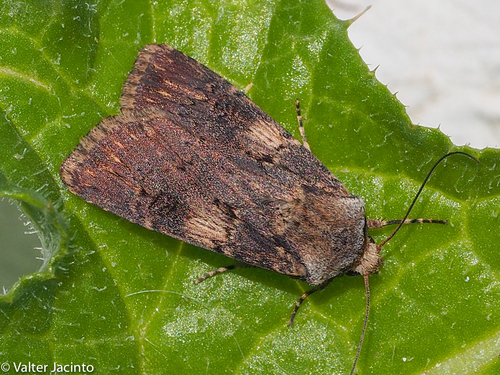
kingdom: Animalia
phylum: Arthropoda
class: Insecta
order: Lepidoptera
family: Noctuidae
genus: Agrotis
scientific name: Agrotis puta
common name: Shuttle-shaped dart
